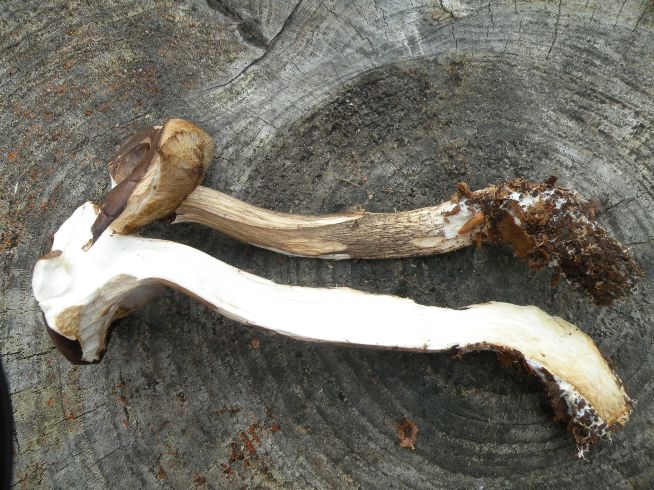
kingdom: Fungi
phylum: Basidiomycota
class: Agaricomycetes
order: Boletales
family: Boletaceae
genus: Leccinum
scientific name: Leccinum scabrum
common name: brun skælrørhat
